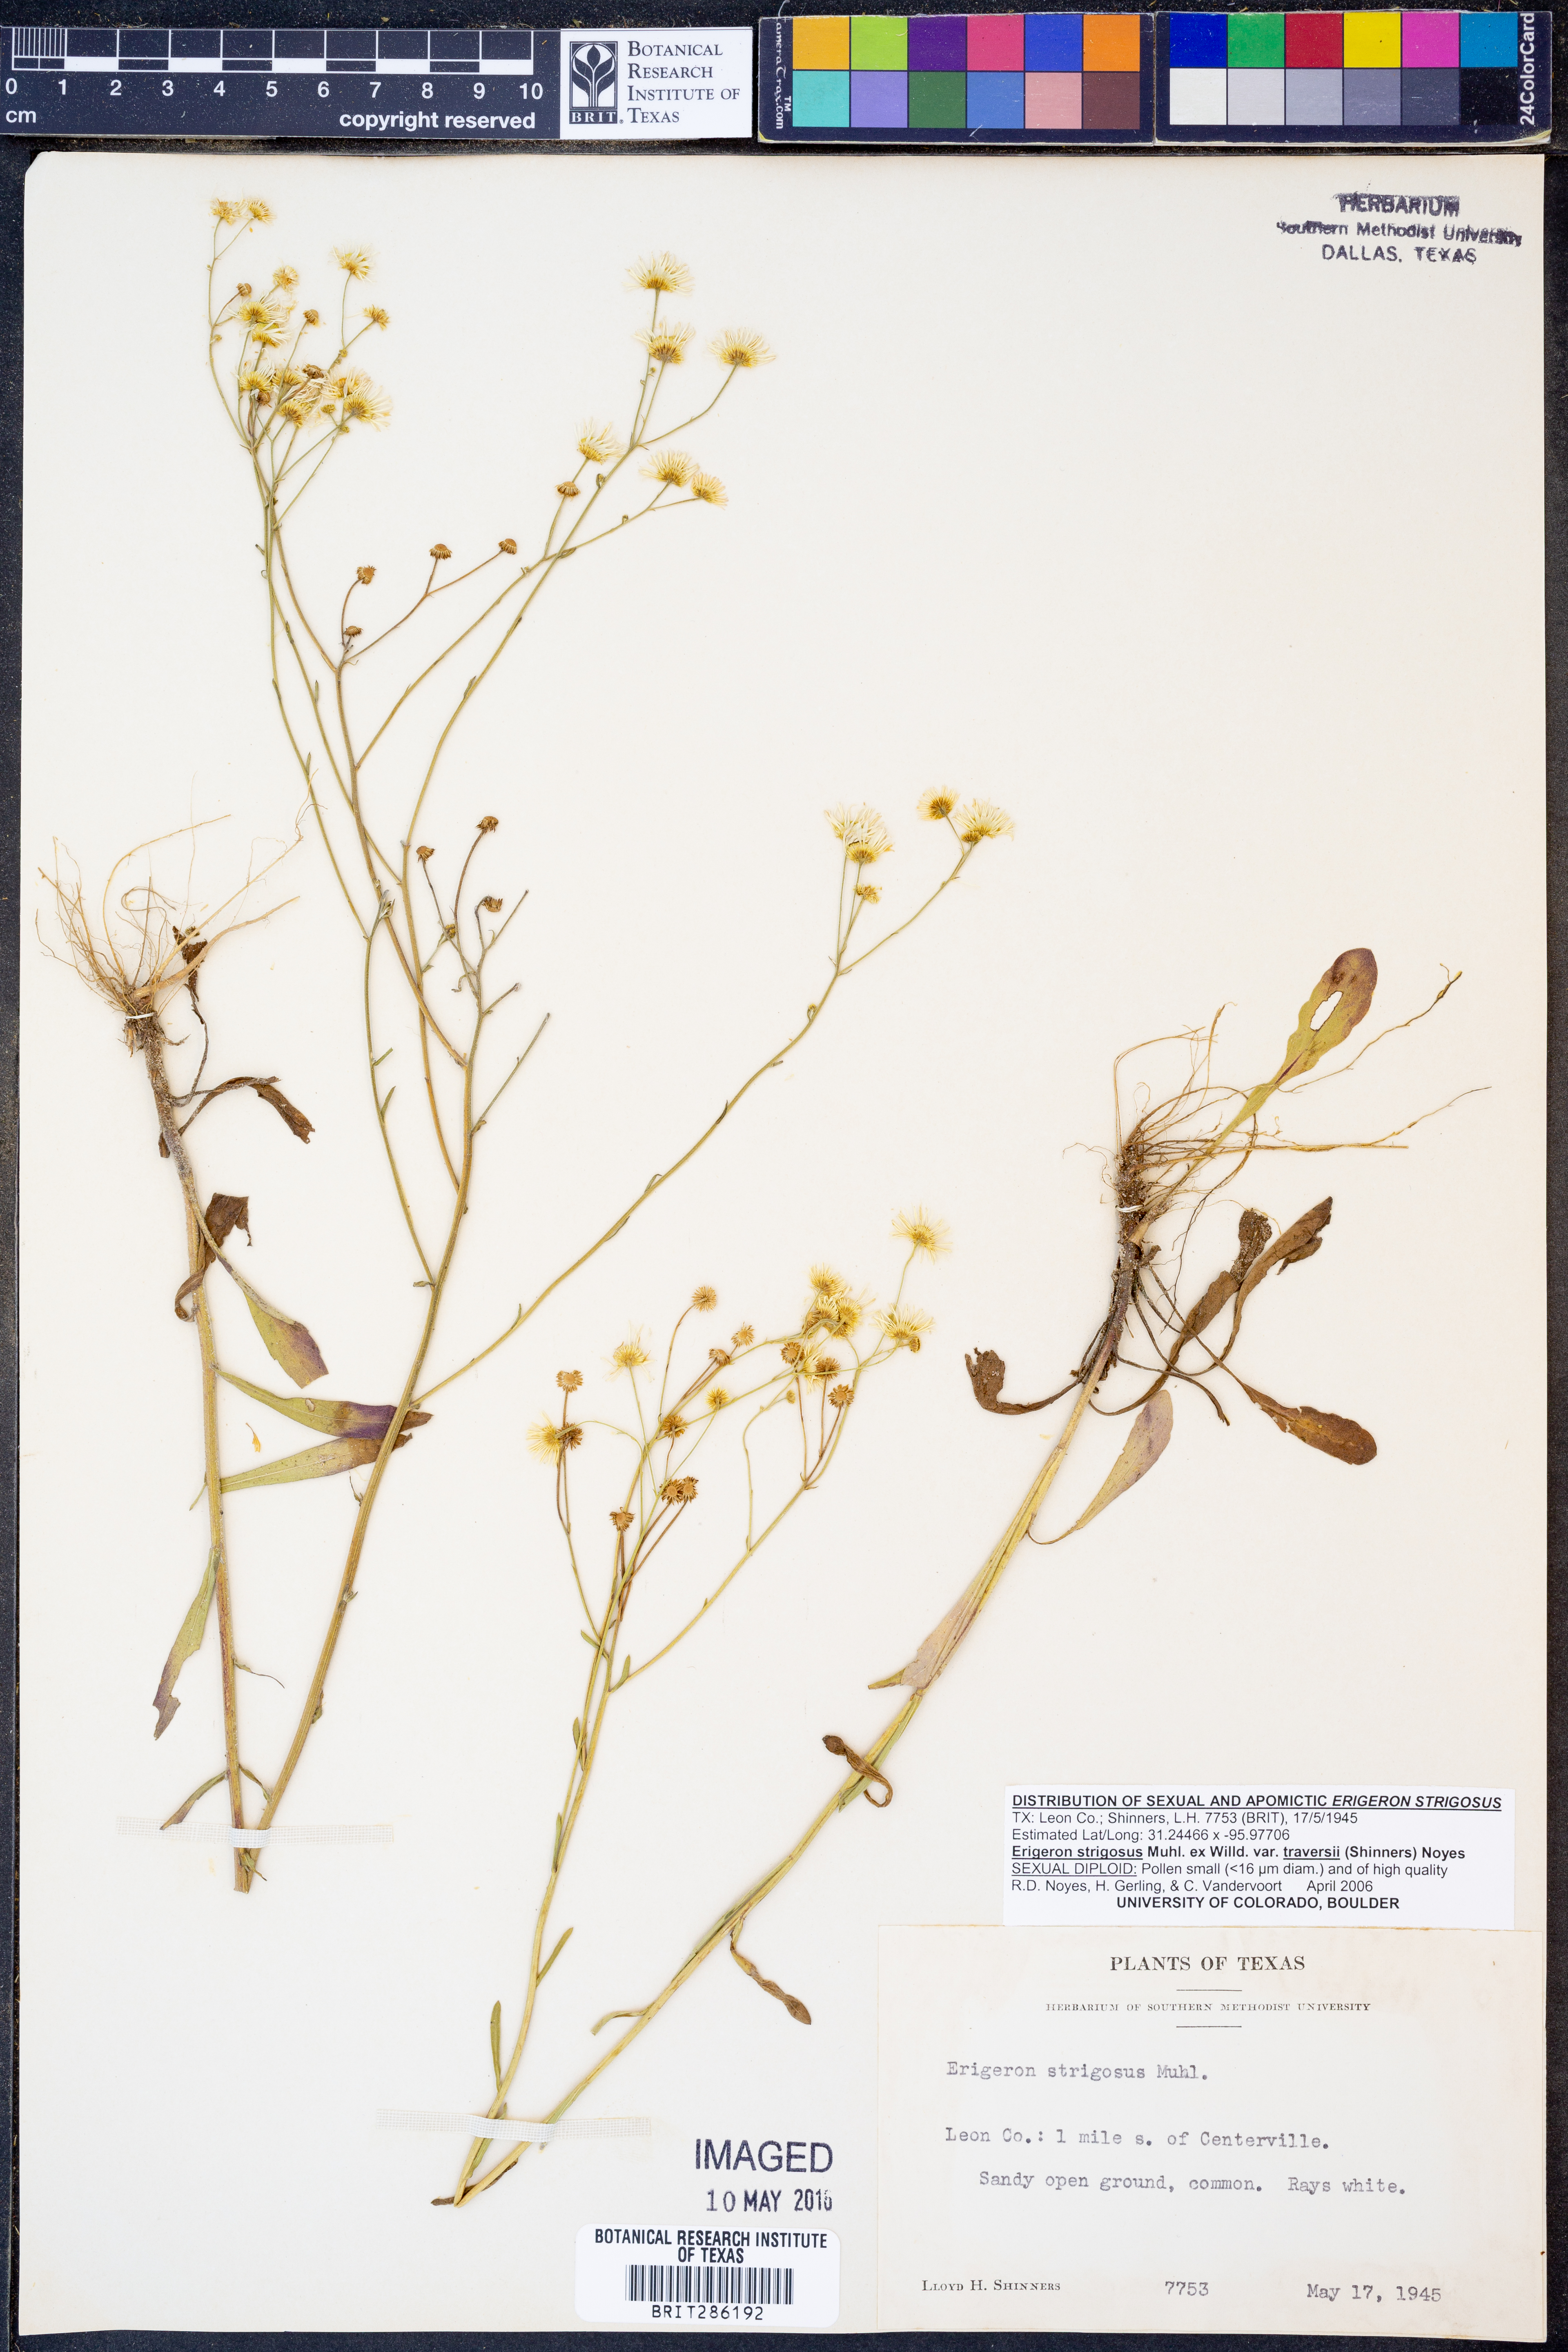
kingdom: Plantae
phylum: Tracheophyta
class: Magnoliopsida
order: Asterales
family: Asteraceae
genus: Erigeron
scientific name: Erigeron strigosus
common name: Common eastern fleabane
